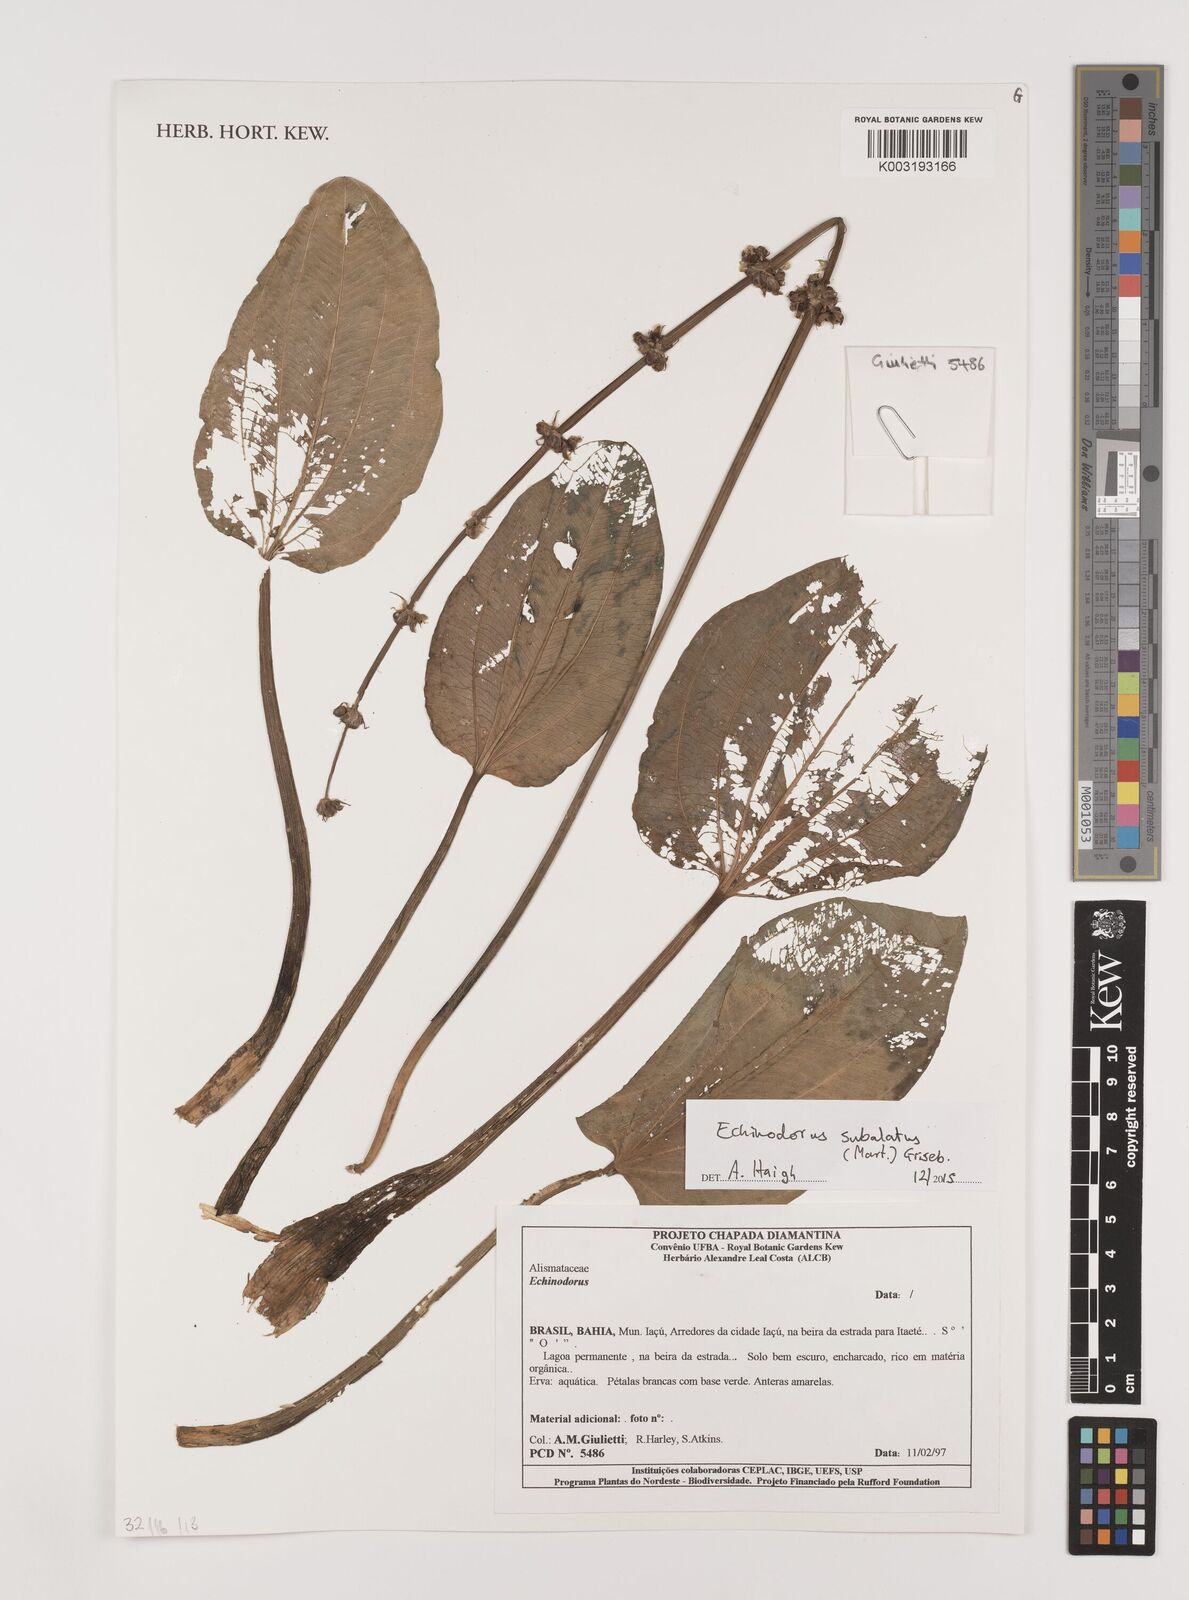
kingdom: Plantae
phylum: Tracheophyta
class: Liliopsida
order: Alismatales
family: Alismataceae
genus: Aquarius
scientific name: Aquarius subulatus
